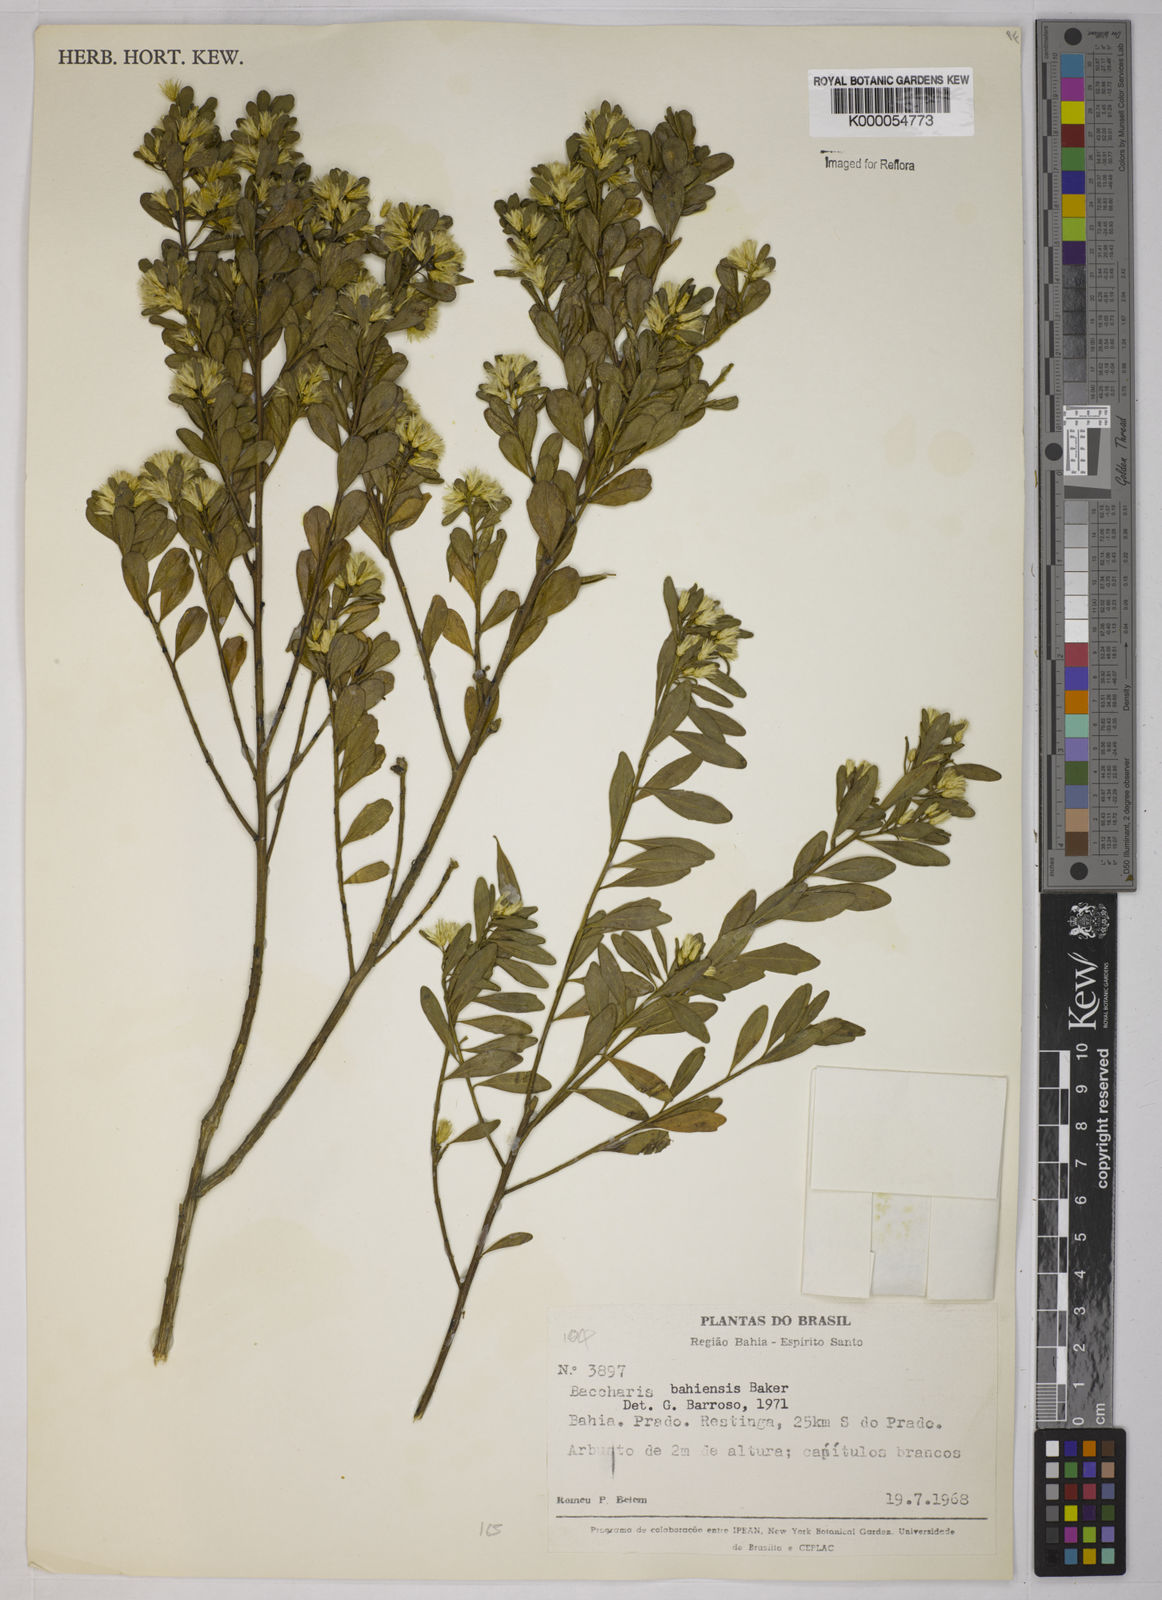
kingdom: Plantae
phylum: Tracheophyta
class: Magnoliopsida
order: Asterales
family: Asteraceae
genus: Baccharis
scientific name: Baccharis
